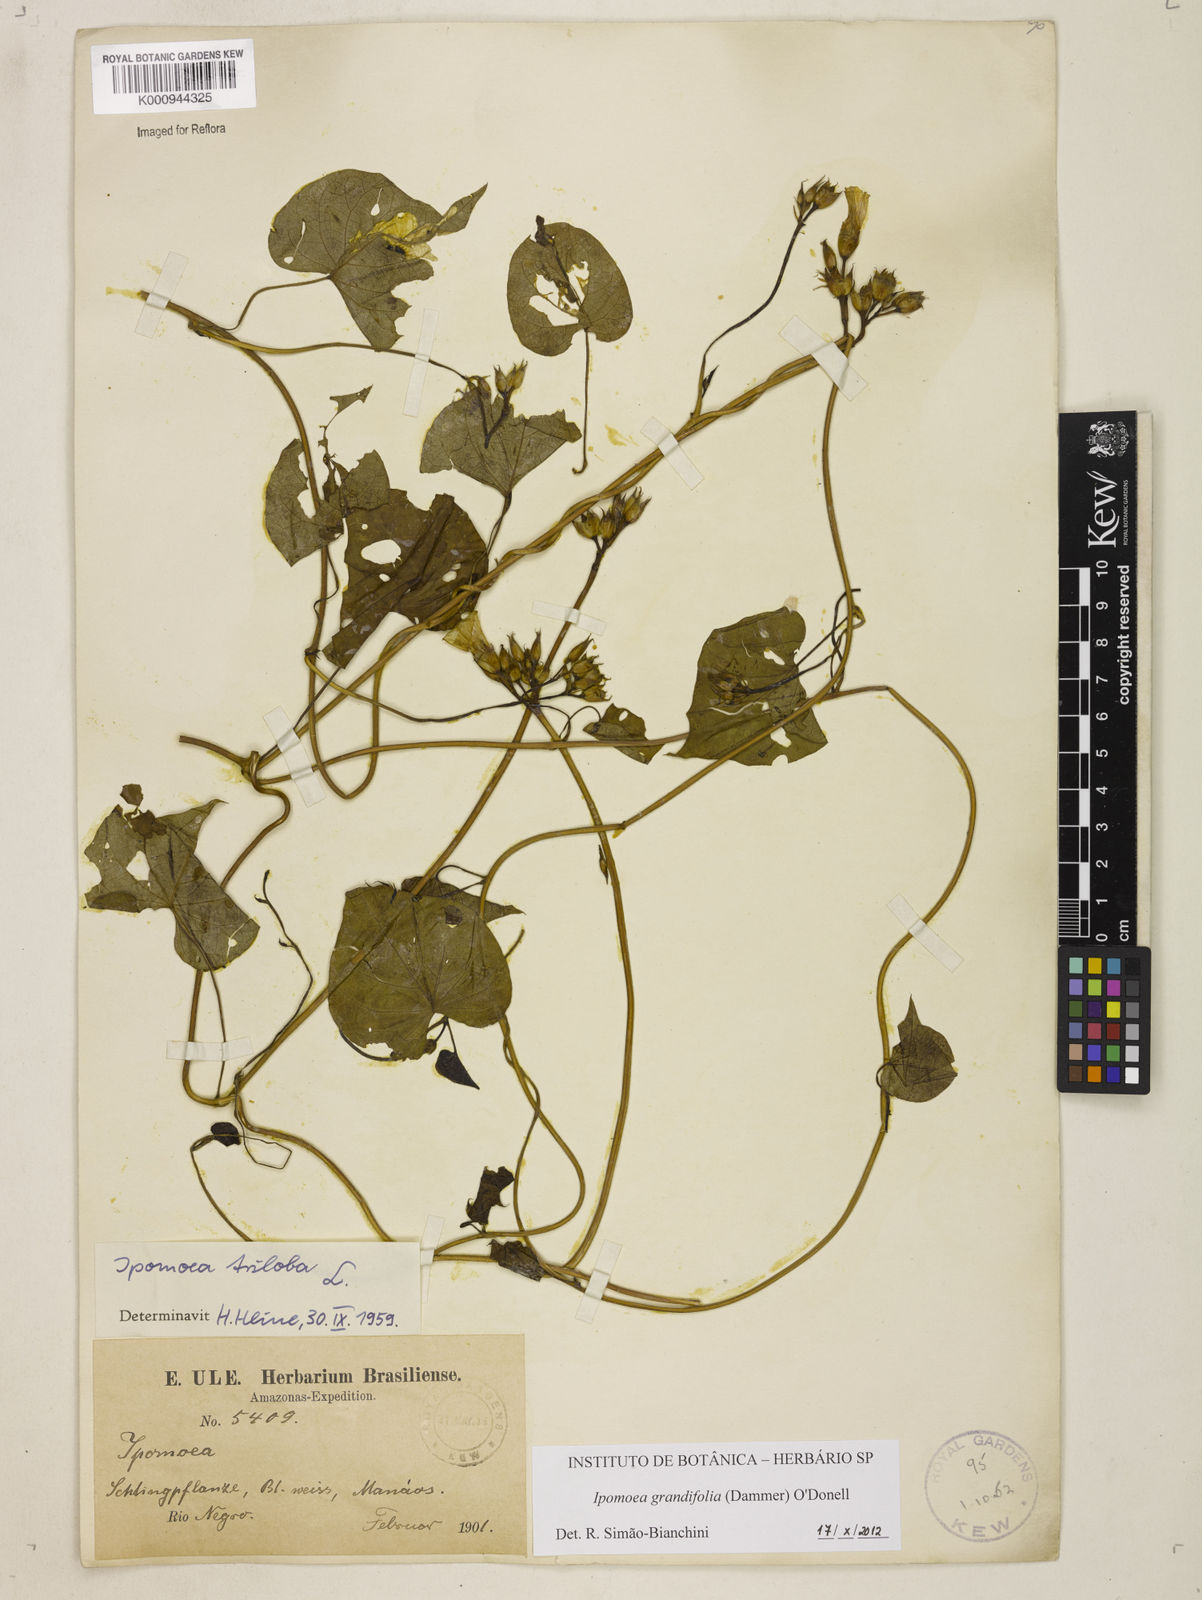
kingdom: Plantae
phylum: Tracheophyta
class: Magnoliopsida
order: Solanales
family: Convolvulaceae
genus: Ipomoea
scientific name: Ipomoea grandifolia
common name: Aiea morning glory
